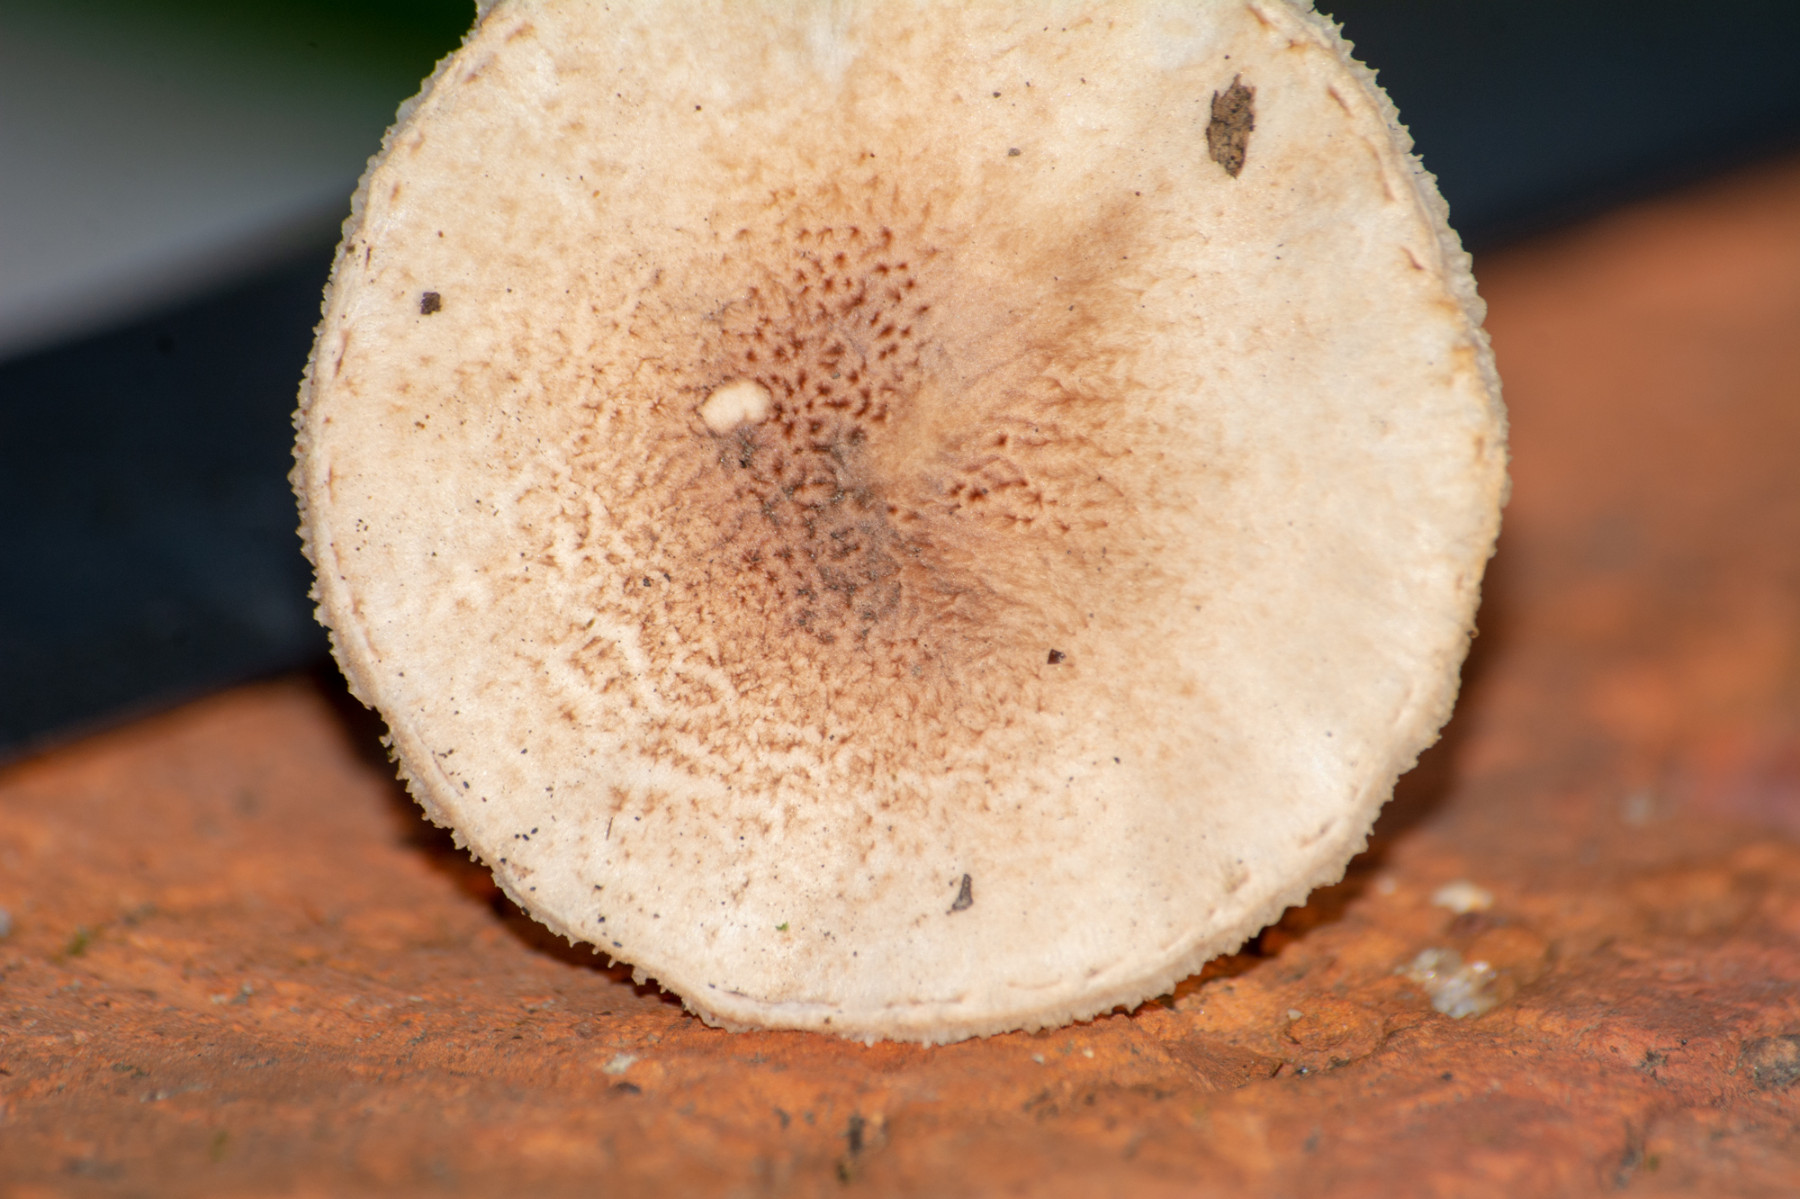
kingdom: Fungi
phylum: Basidiomycota
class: Agaricomycetes
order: Agaricales
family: Agaricaceae
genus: Lepiota
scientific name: Lepiota
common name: parasolhat
